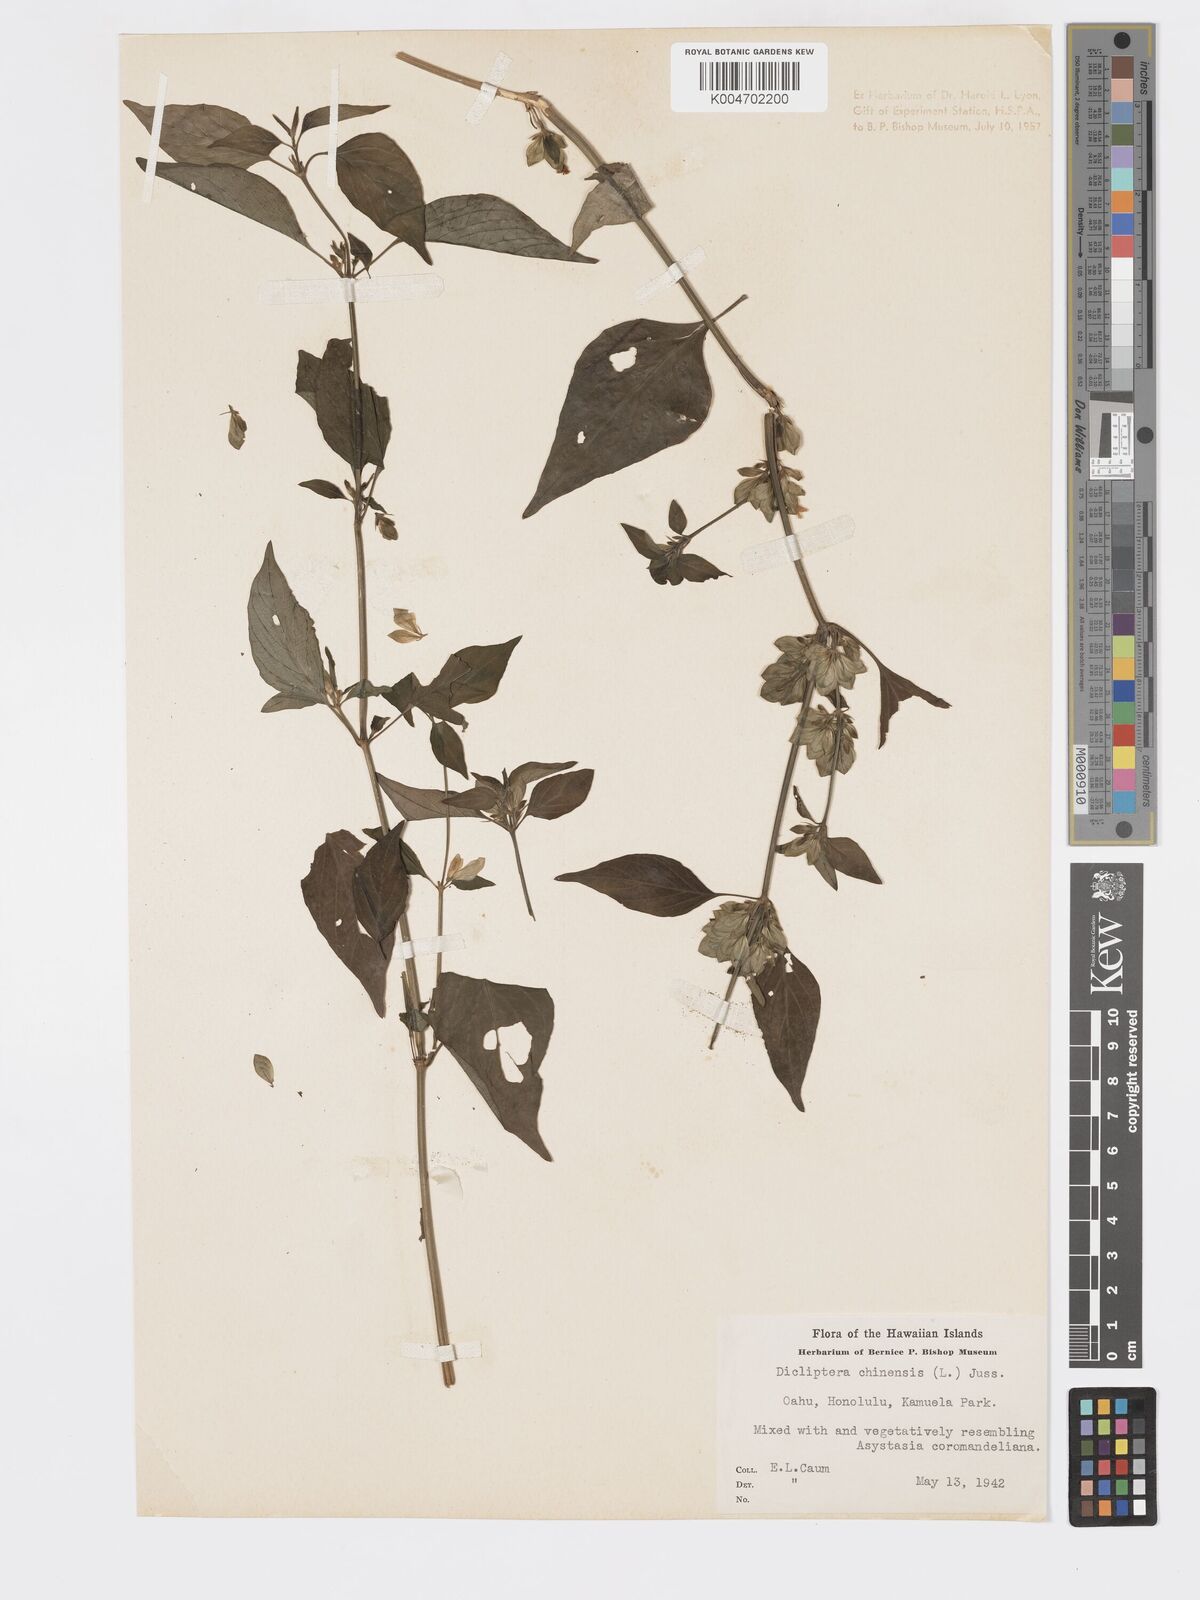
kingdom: Plantae
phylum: Tracheophyta
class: Magnoliopsida
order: Lamiales
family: Acanthaceae
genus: Dicliptera
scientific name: Dicliptera chinensis
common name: Chinese foldwing
